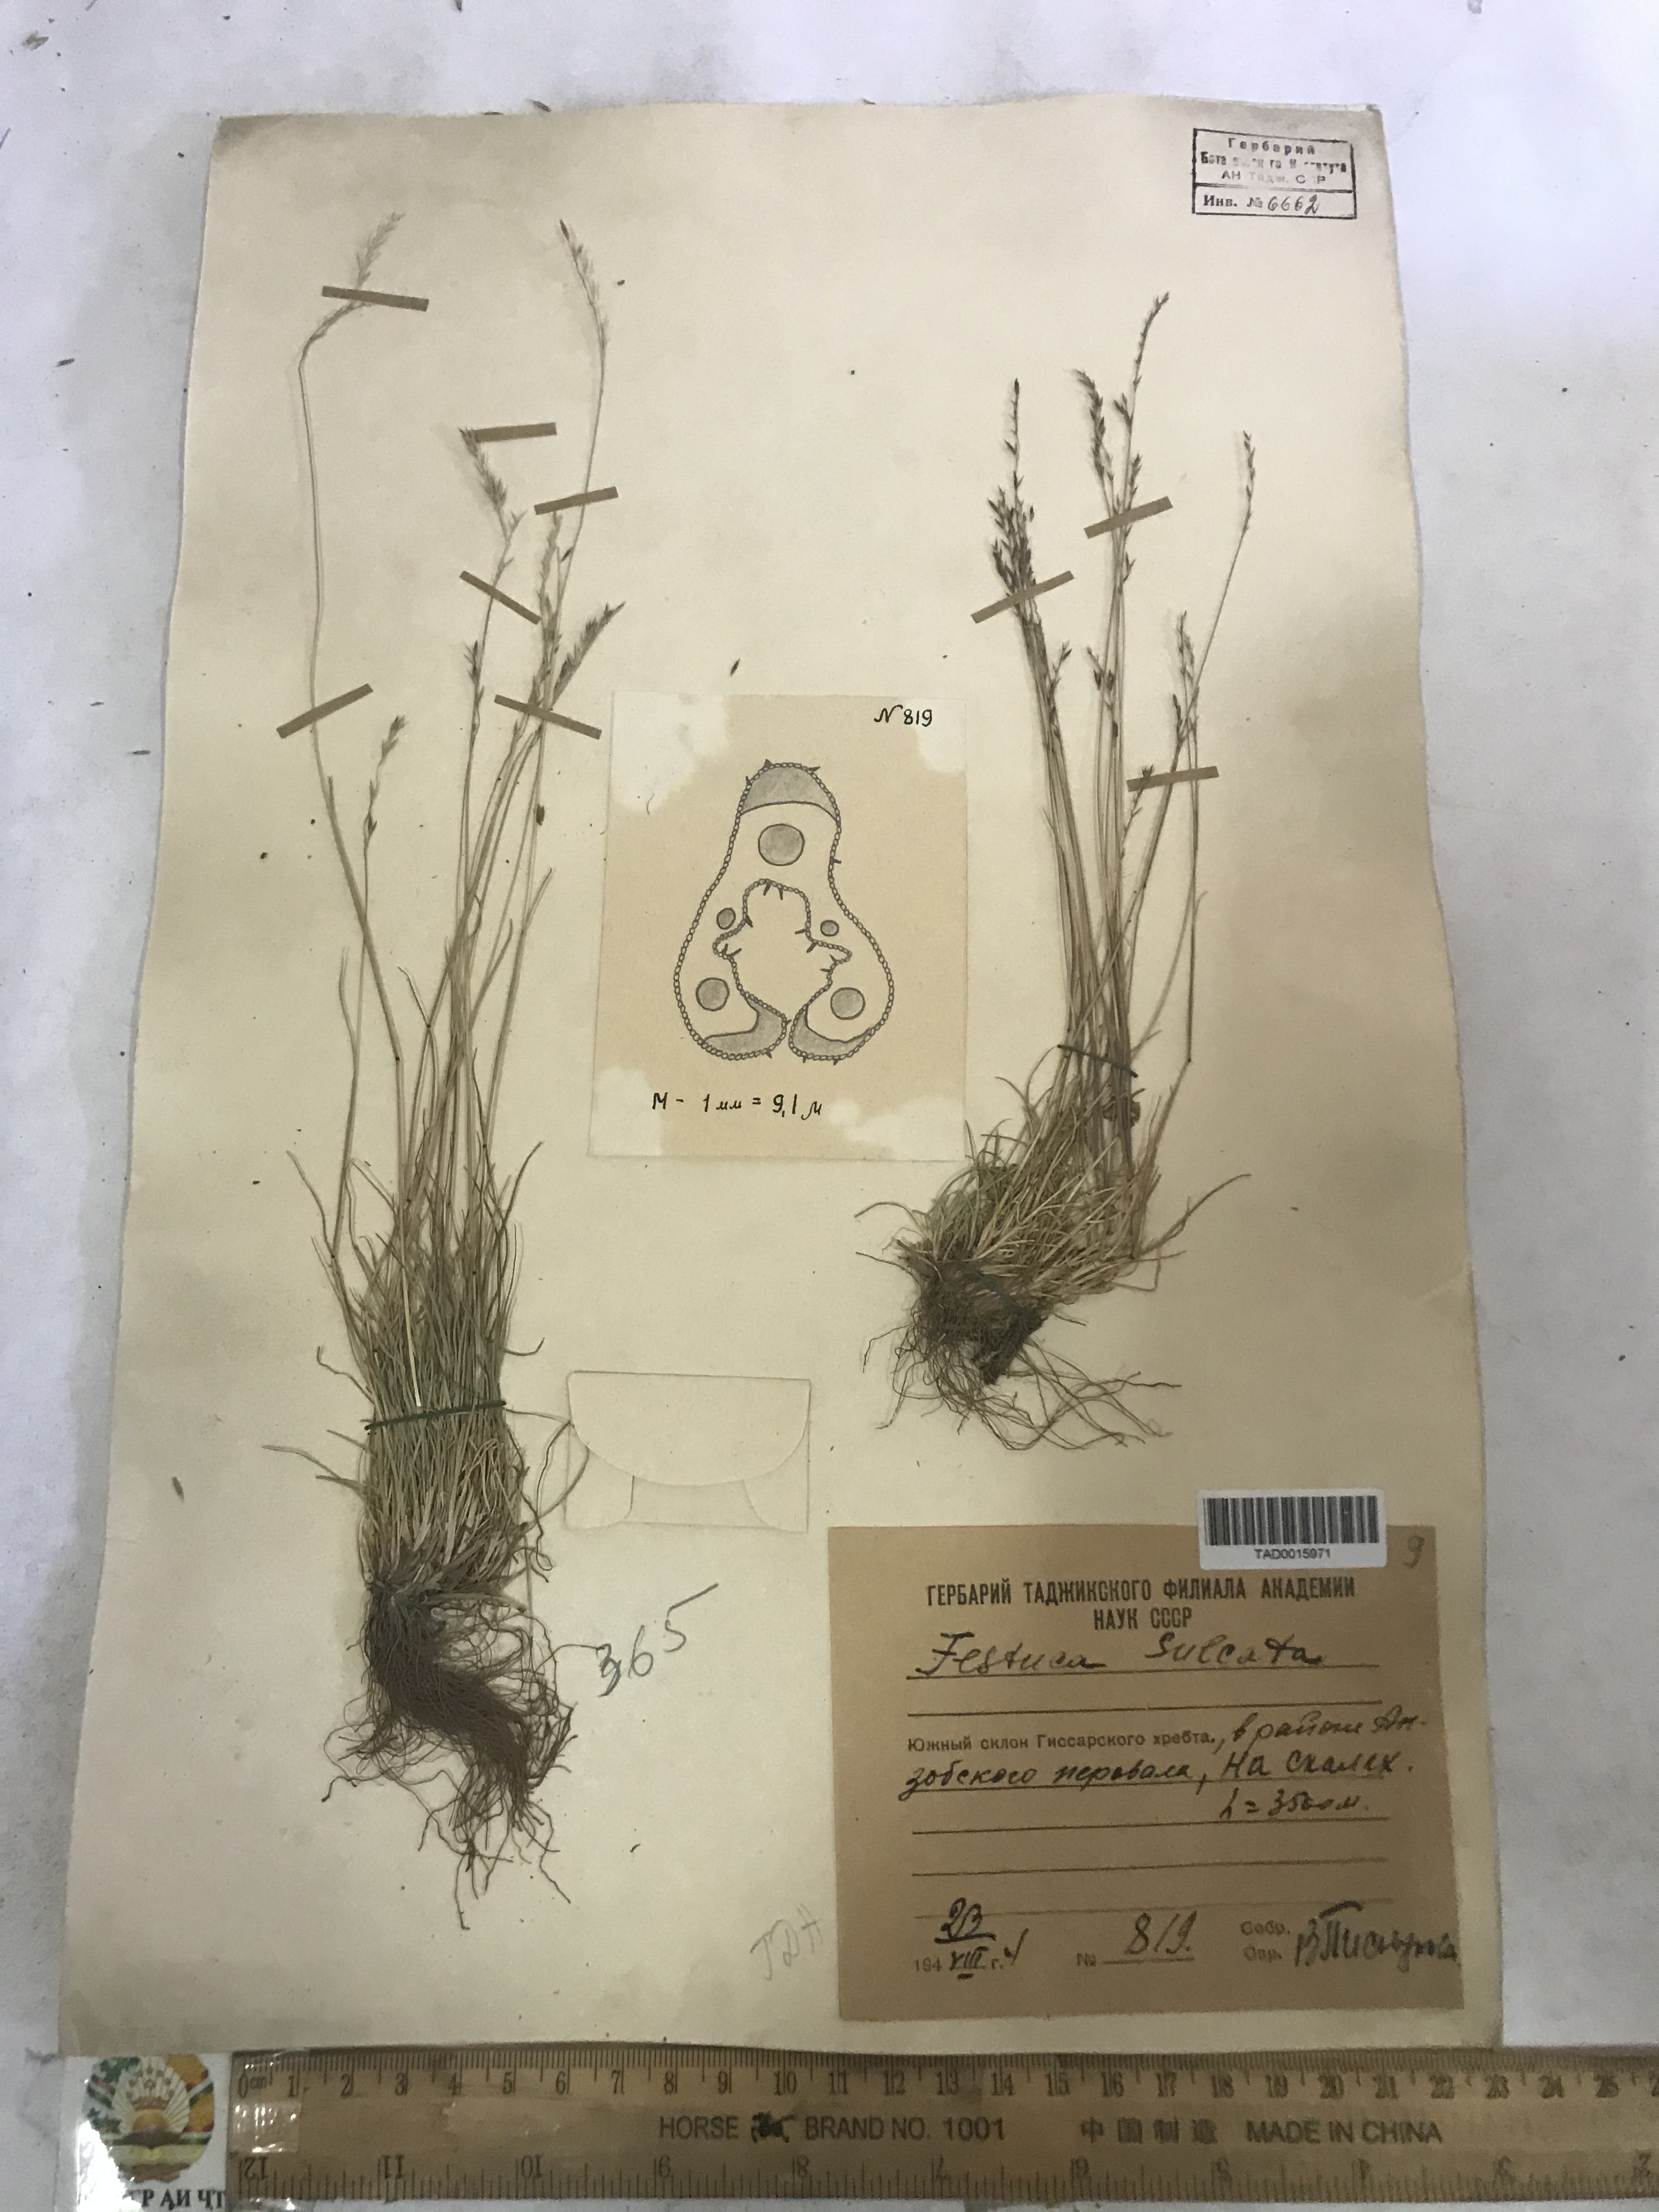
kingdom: Plantae
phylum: Tracheophyta
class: Liliopsida
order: Poales
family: Poaceae
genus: Festuca
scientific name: Festuca sulcata
